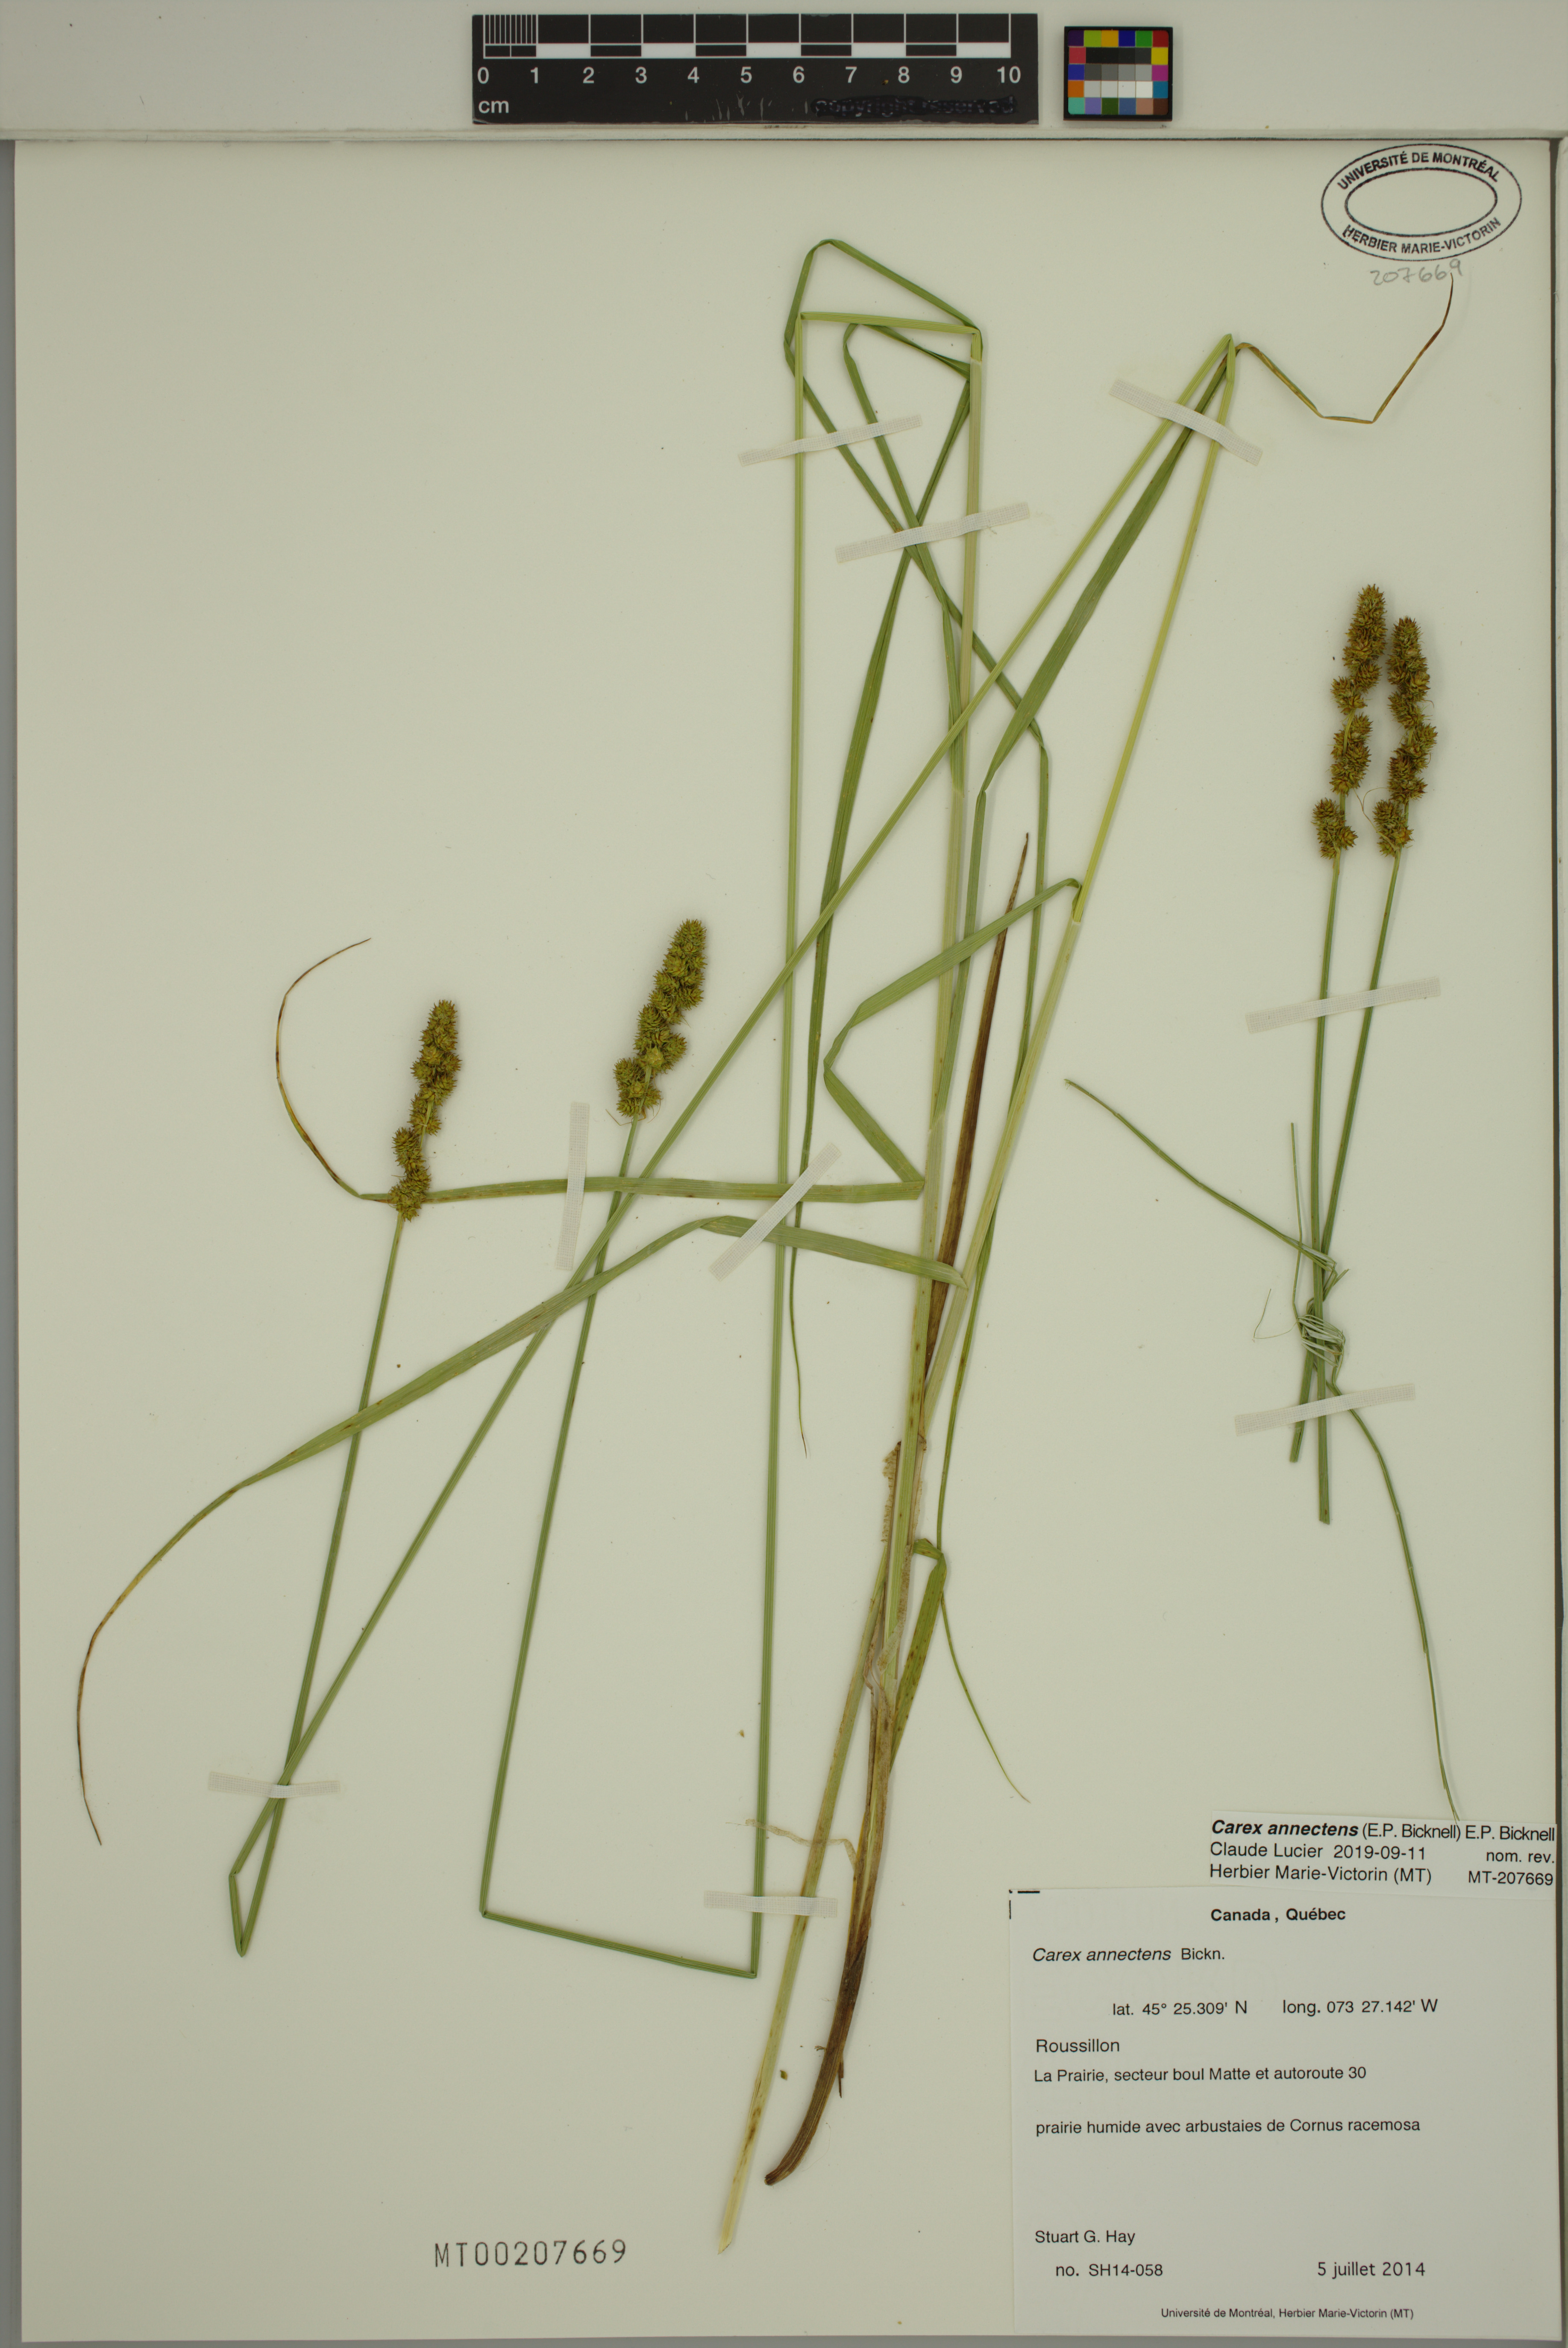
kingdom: Plantae
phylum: Tracheophyta
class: Liliopsida
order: Poales
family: Cyperaceae
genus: Carex
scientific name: Carex annectens
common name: Large fox sedge
